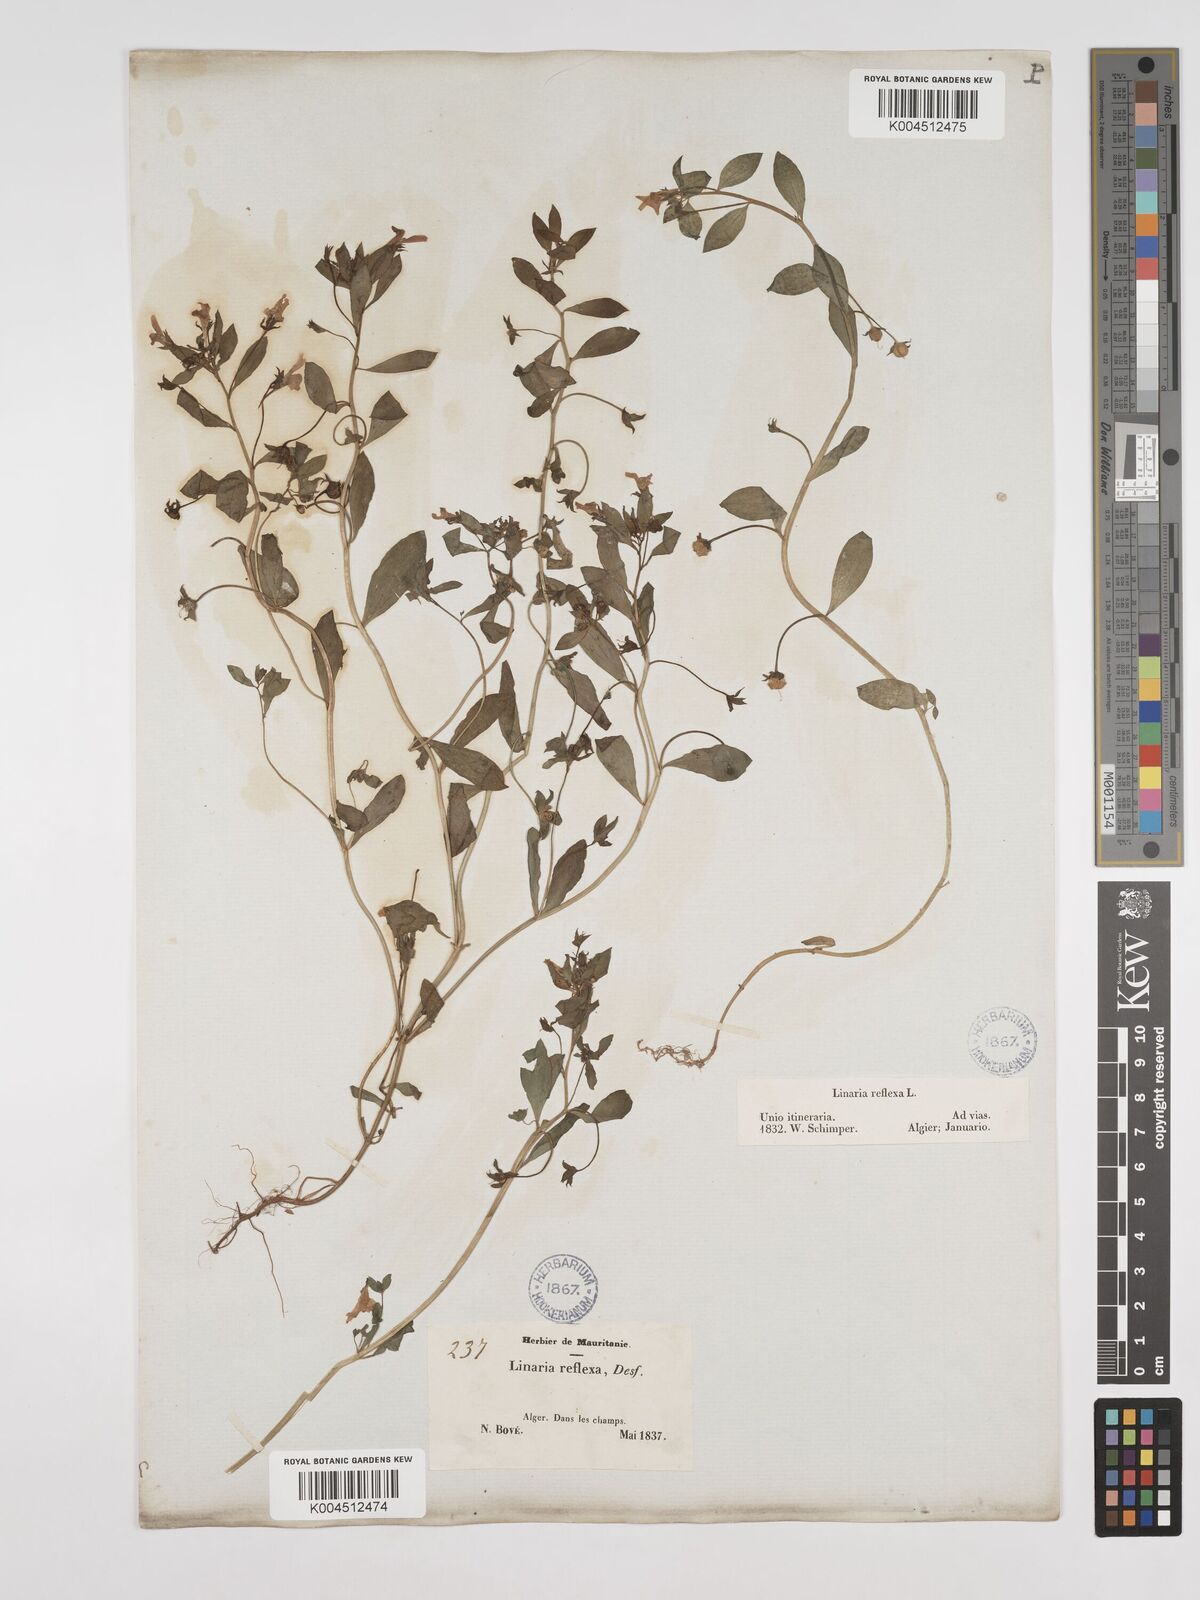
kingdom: Plantae
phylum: Tracheophyta
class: Magnoliopsida
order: Lamiales
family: Plantaginaceae
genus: Linaria
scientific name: Linaria reflexa
